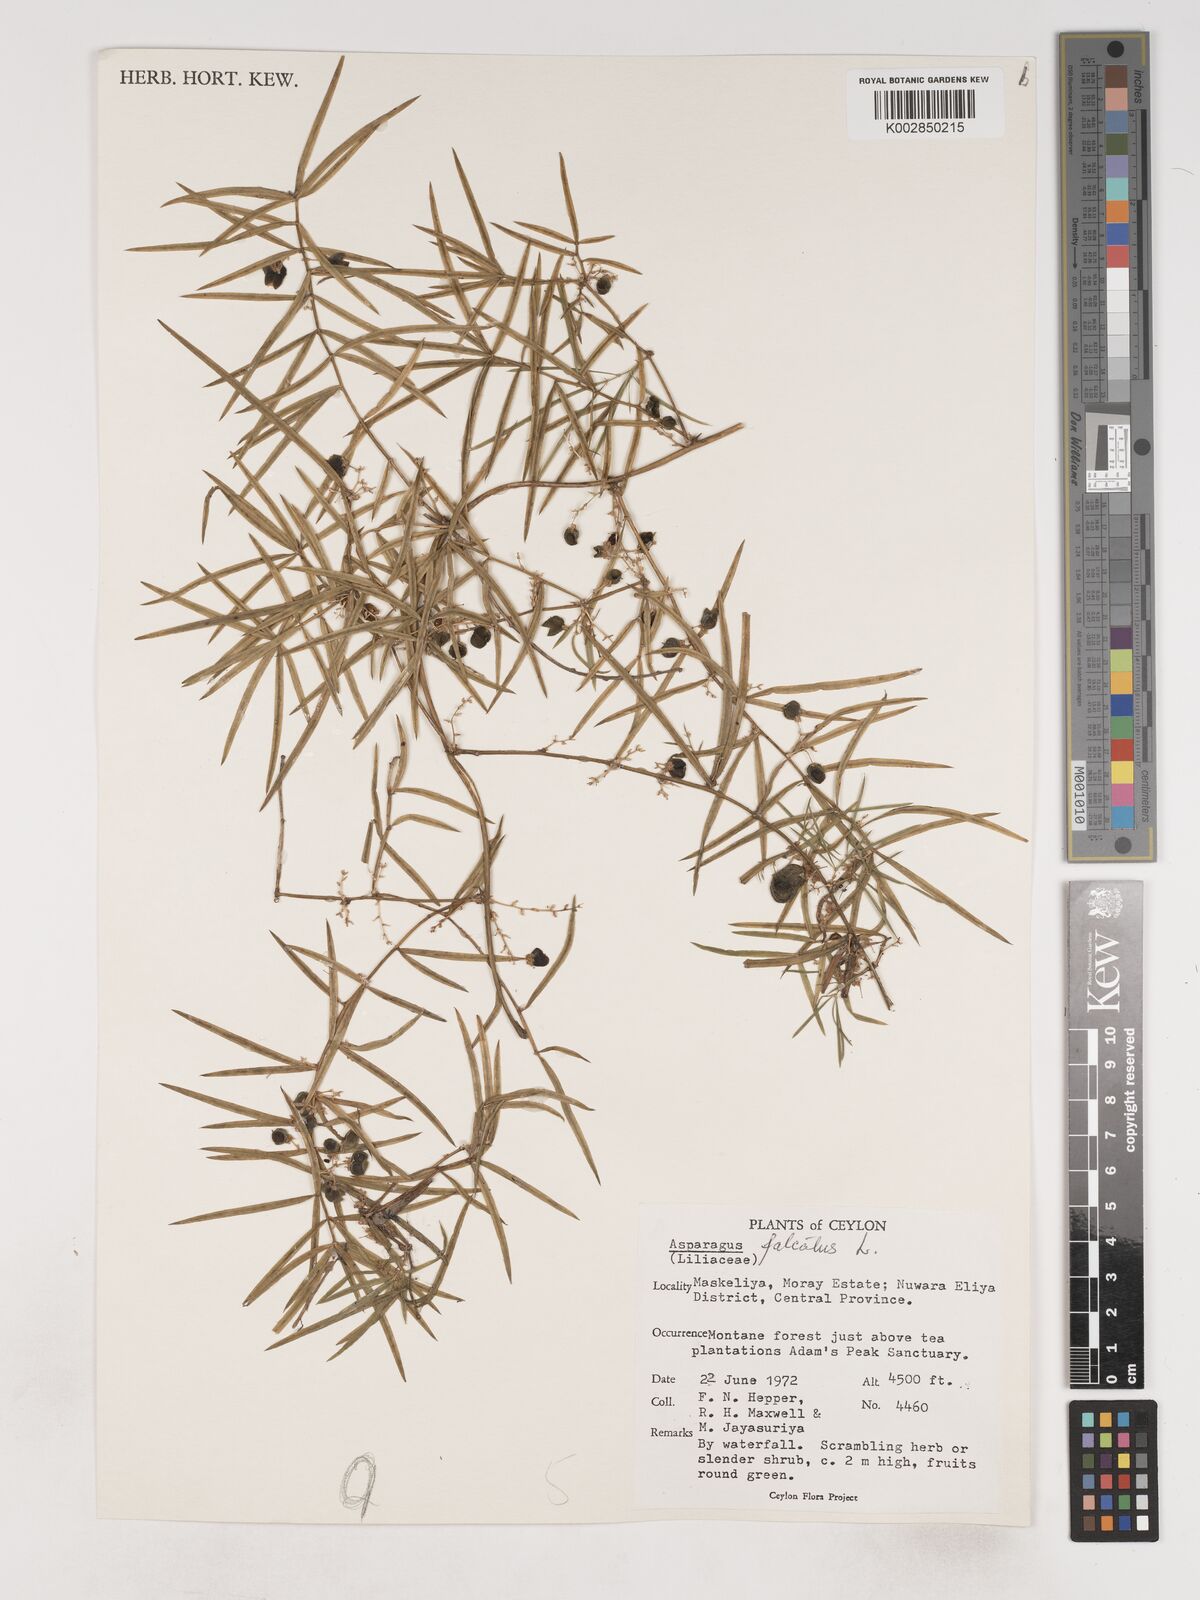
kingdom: Plantae
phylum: Tracheophyta
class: Liliopsida
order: Asparagales
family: Asparagaceae
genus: Asparagus
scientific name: Asparagus falcatus
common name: Asparagus
